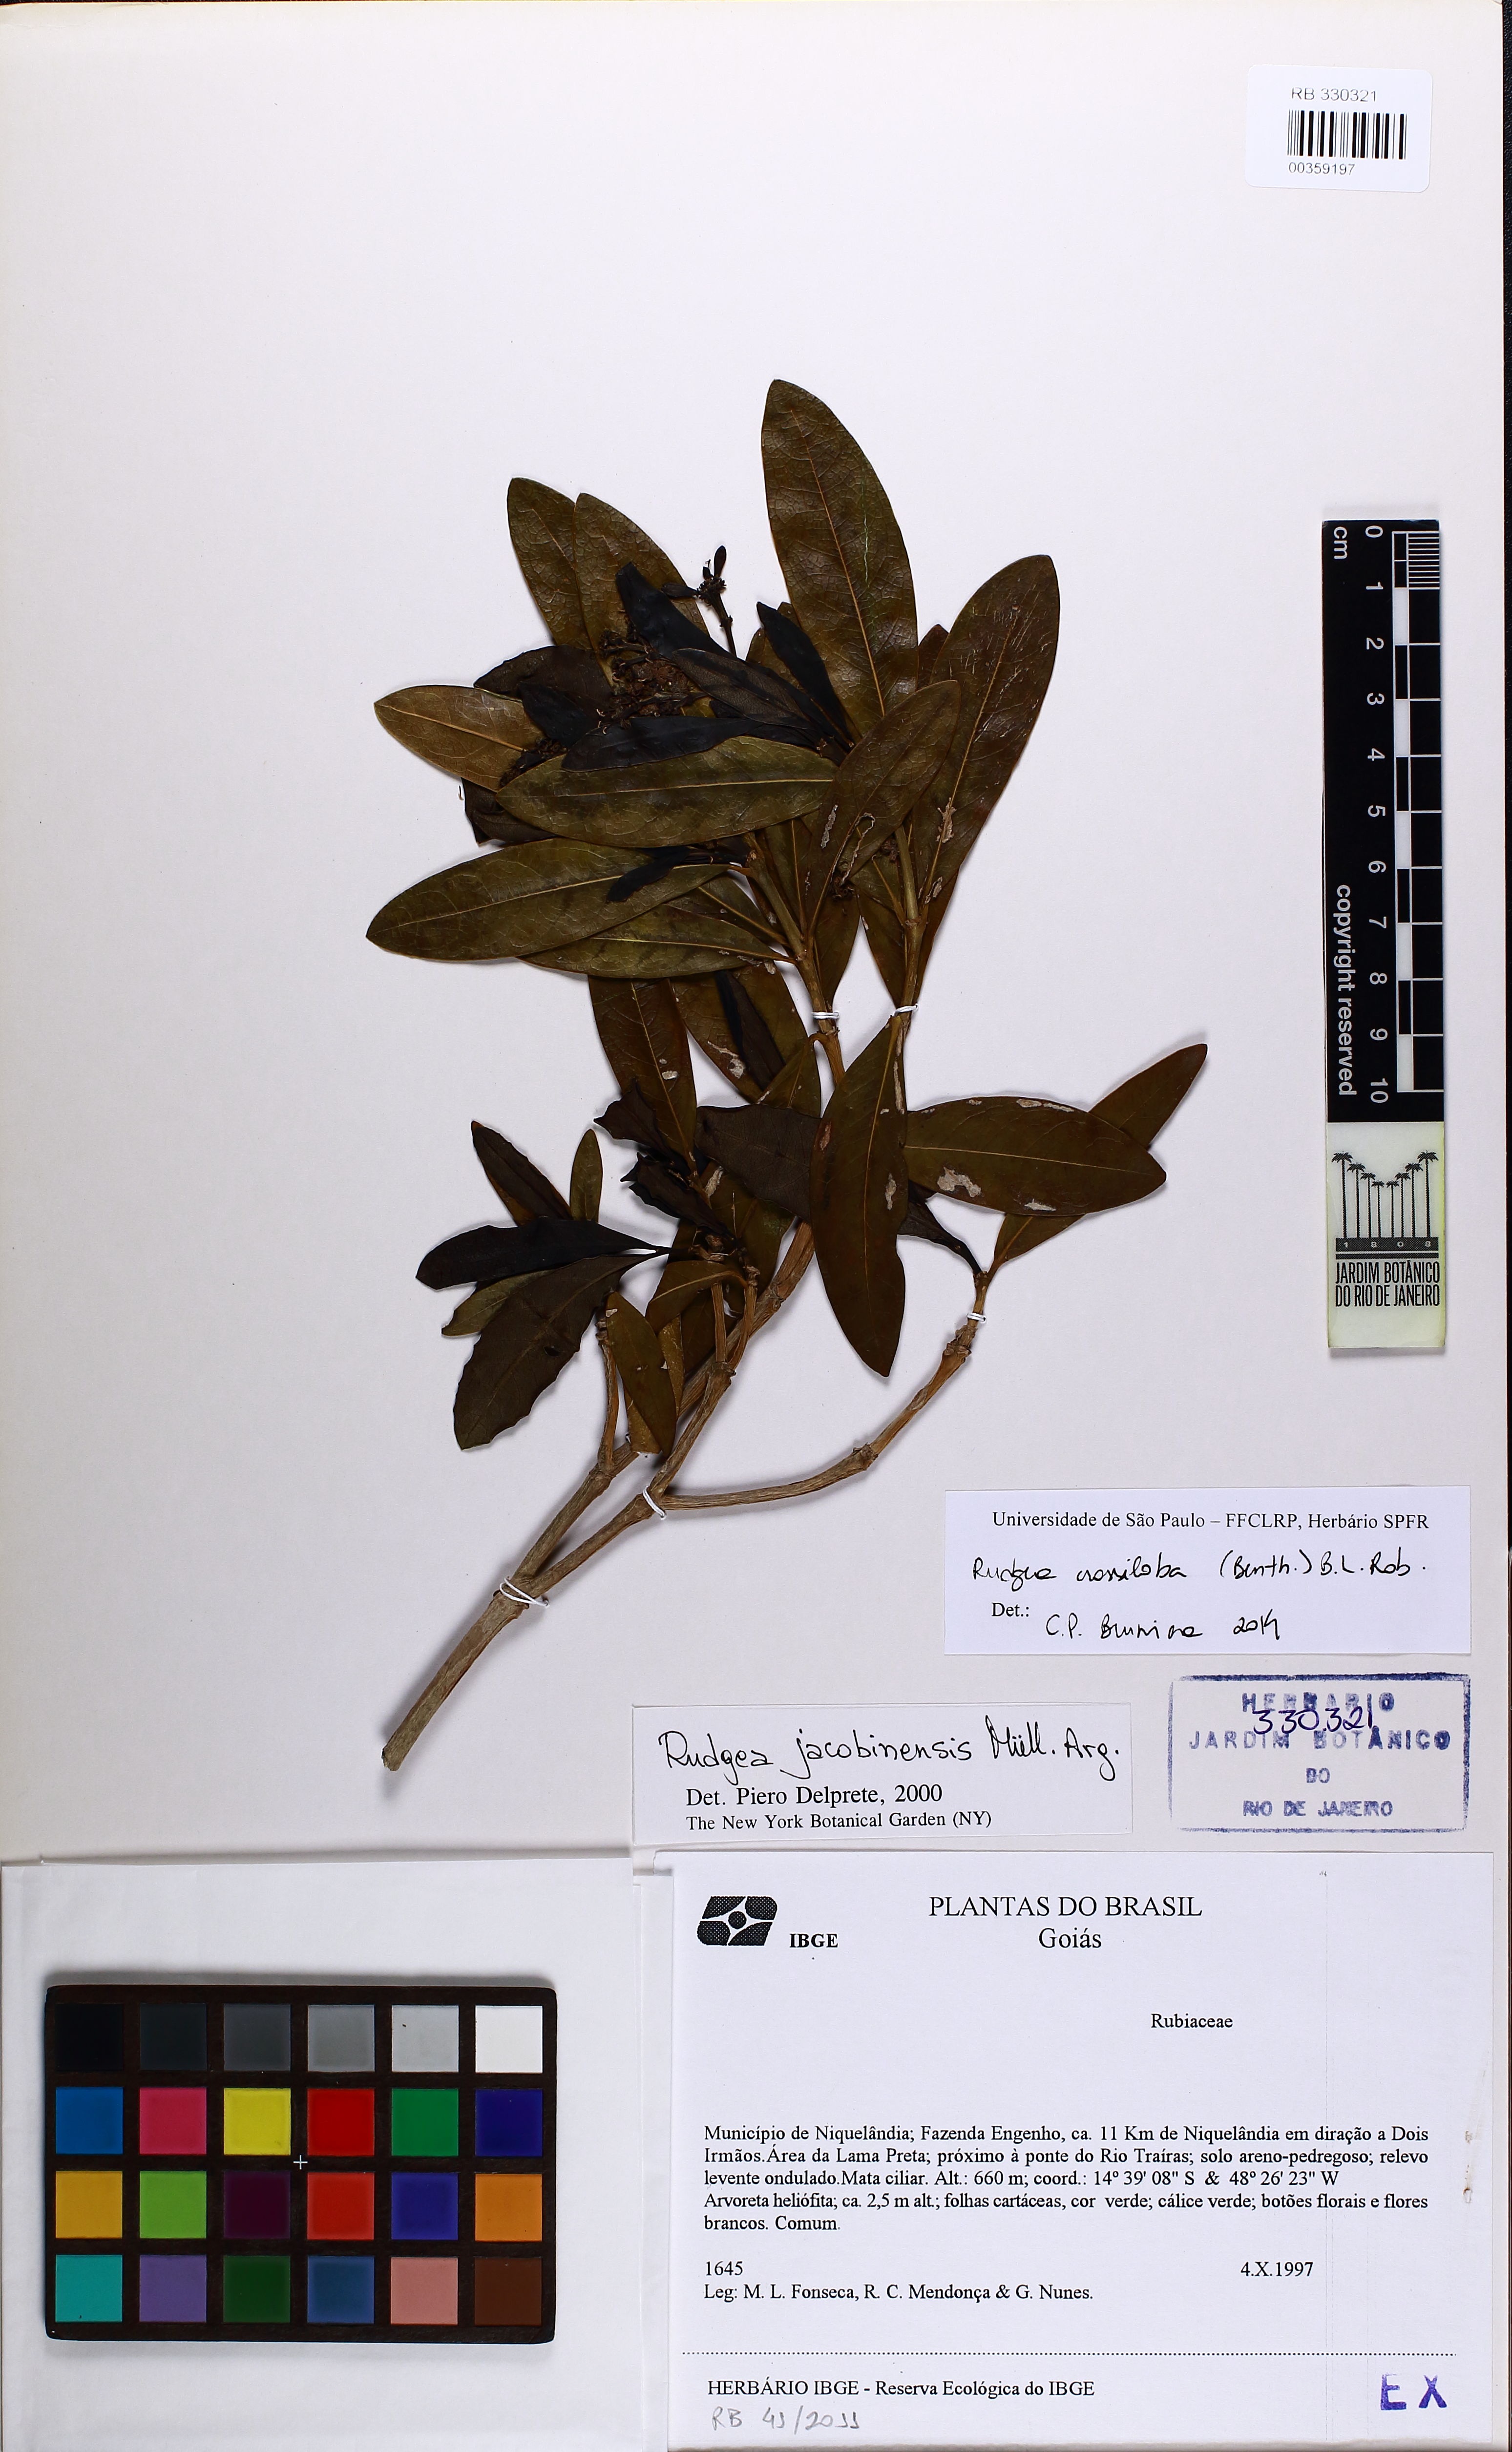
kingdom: Plantae
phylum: Tracheophyta
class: Magnoliopsida
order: Gentianales
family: Rubiaceae
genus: Rudgea
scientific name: Rudgea crassiloba
